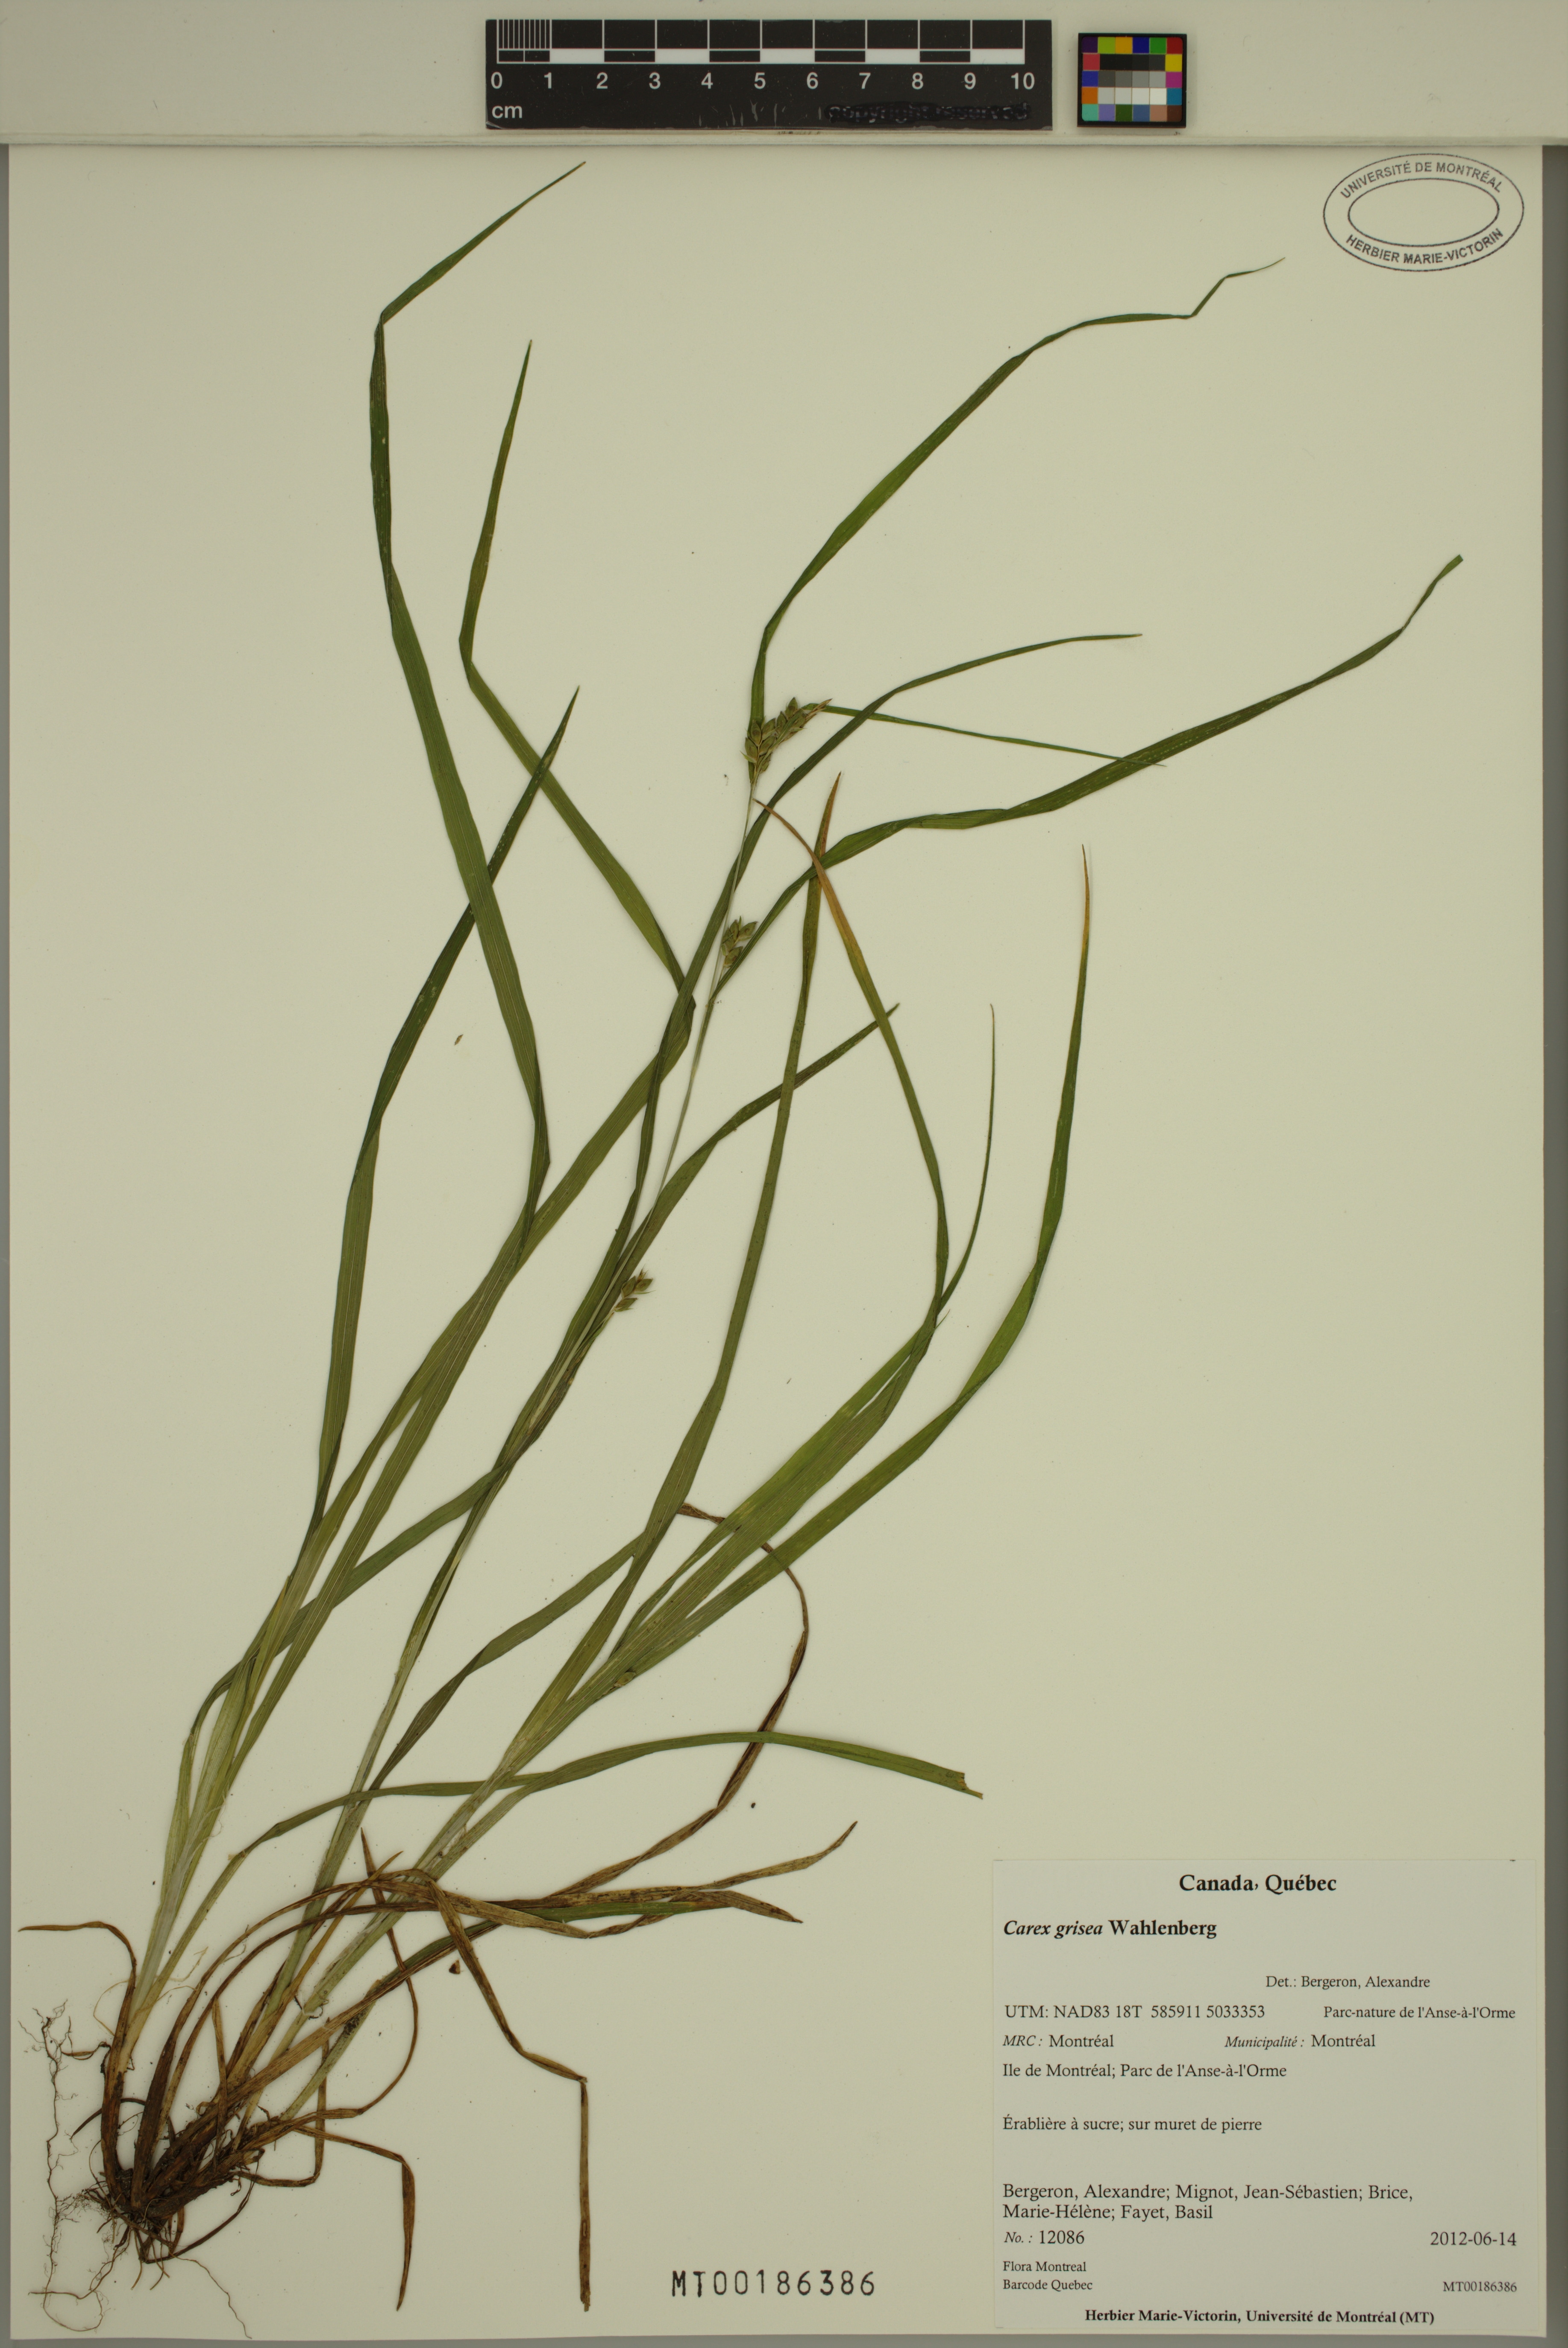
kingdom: Plantae
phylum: Tracheophyta
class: Liliopsida
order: Poales
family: Cyperaceae
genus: Carex
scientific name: Carex grisea
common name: Eastern narrow-leaved sedge
